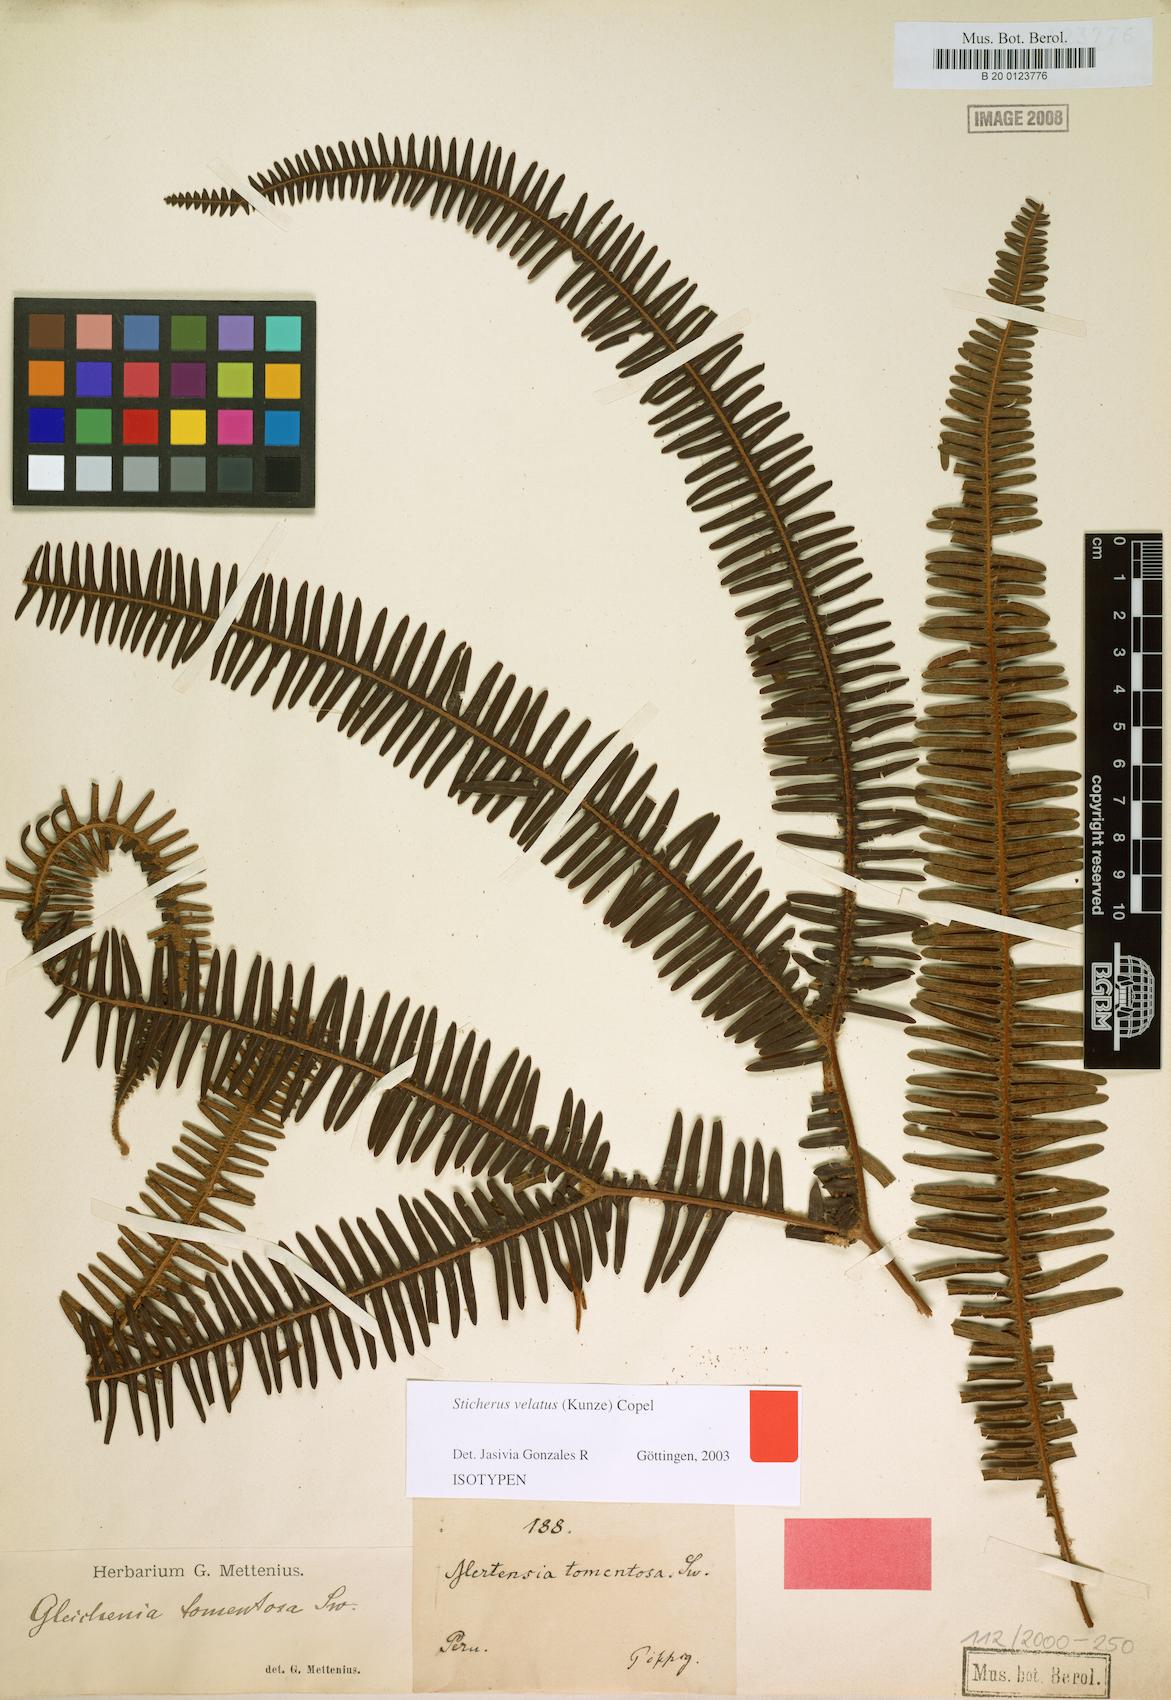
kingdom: Plantae
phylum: Tracheophyta
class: Polypodiopsida
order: Gleicheniales
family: Gleicheniaceae
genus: Sticherus
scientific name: Sticherus velatus
